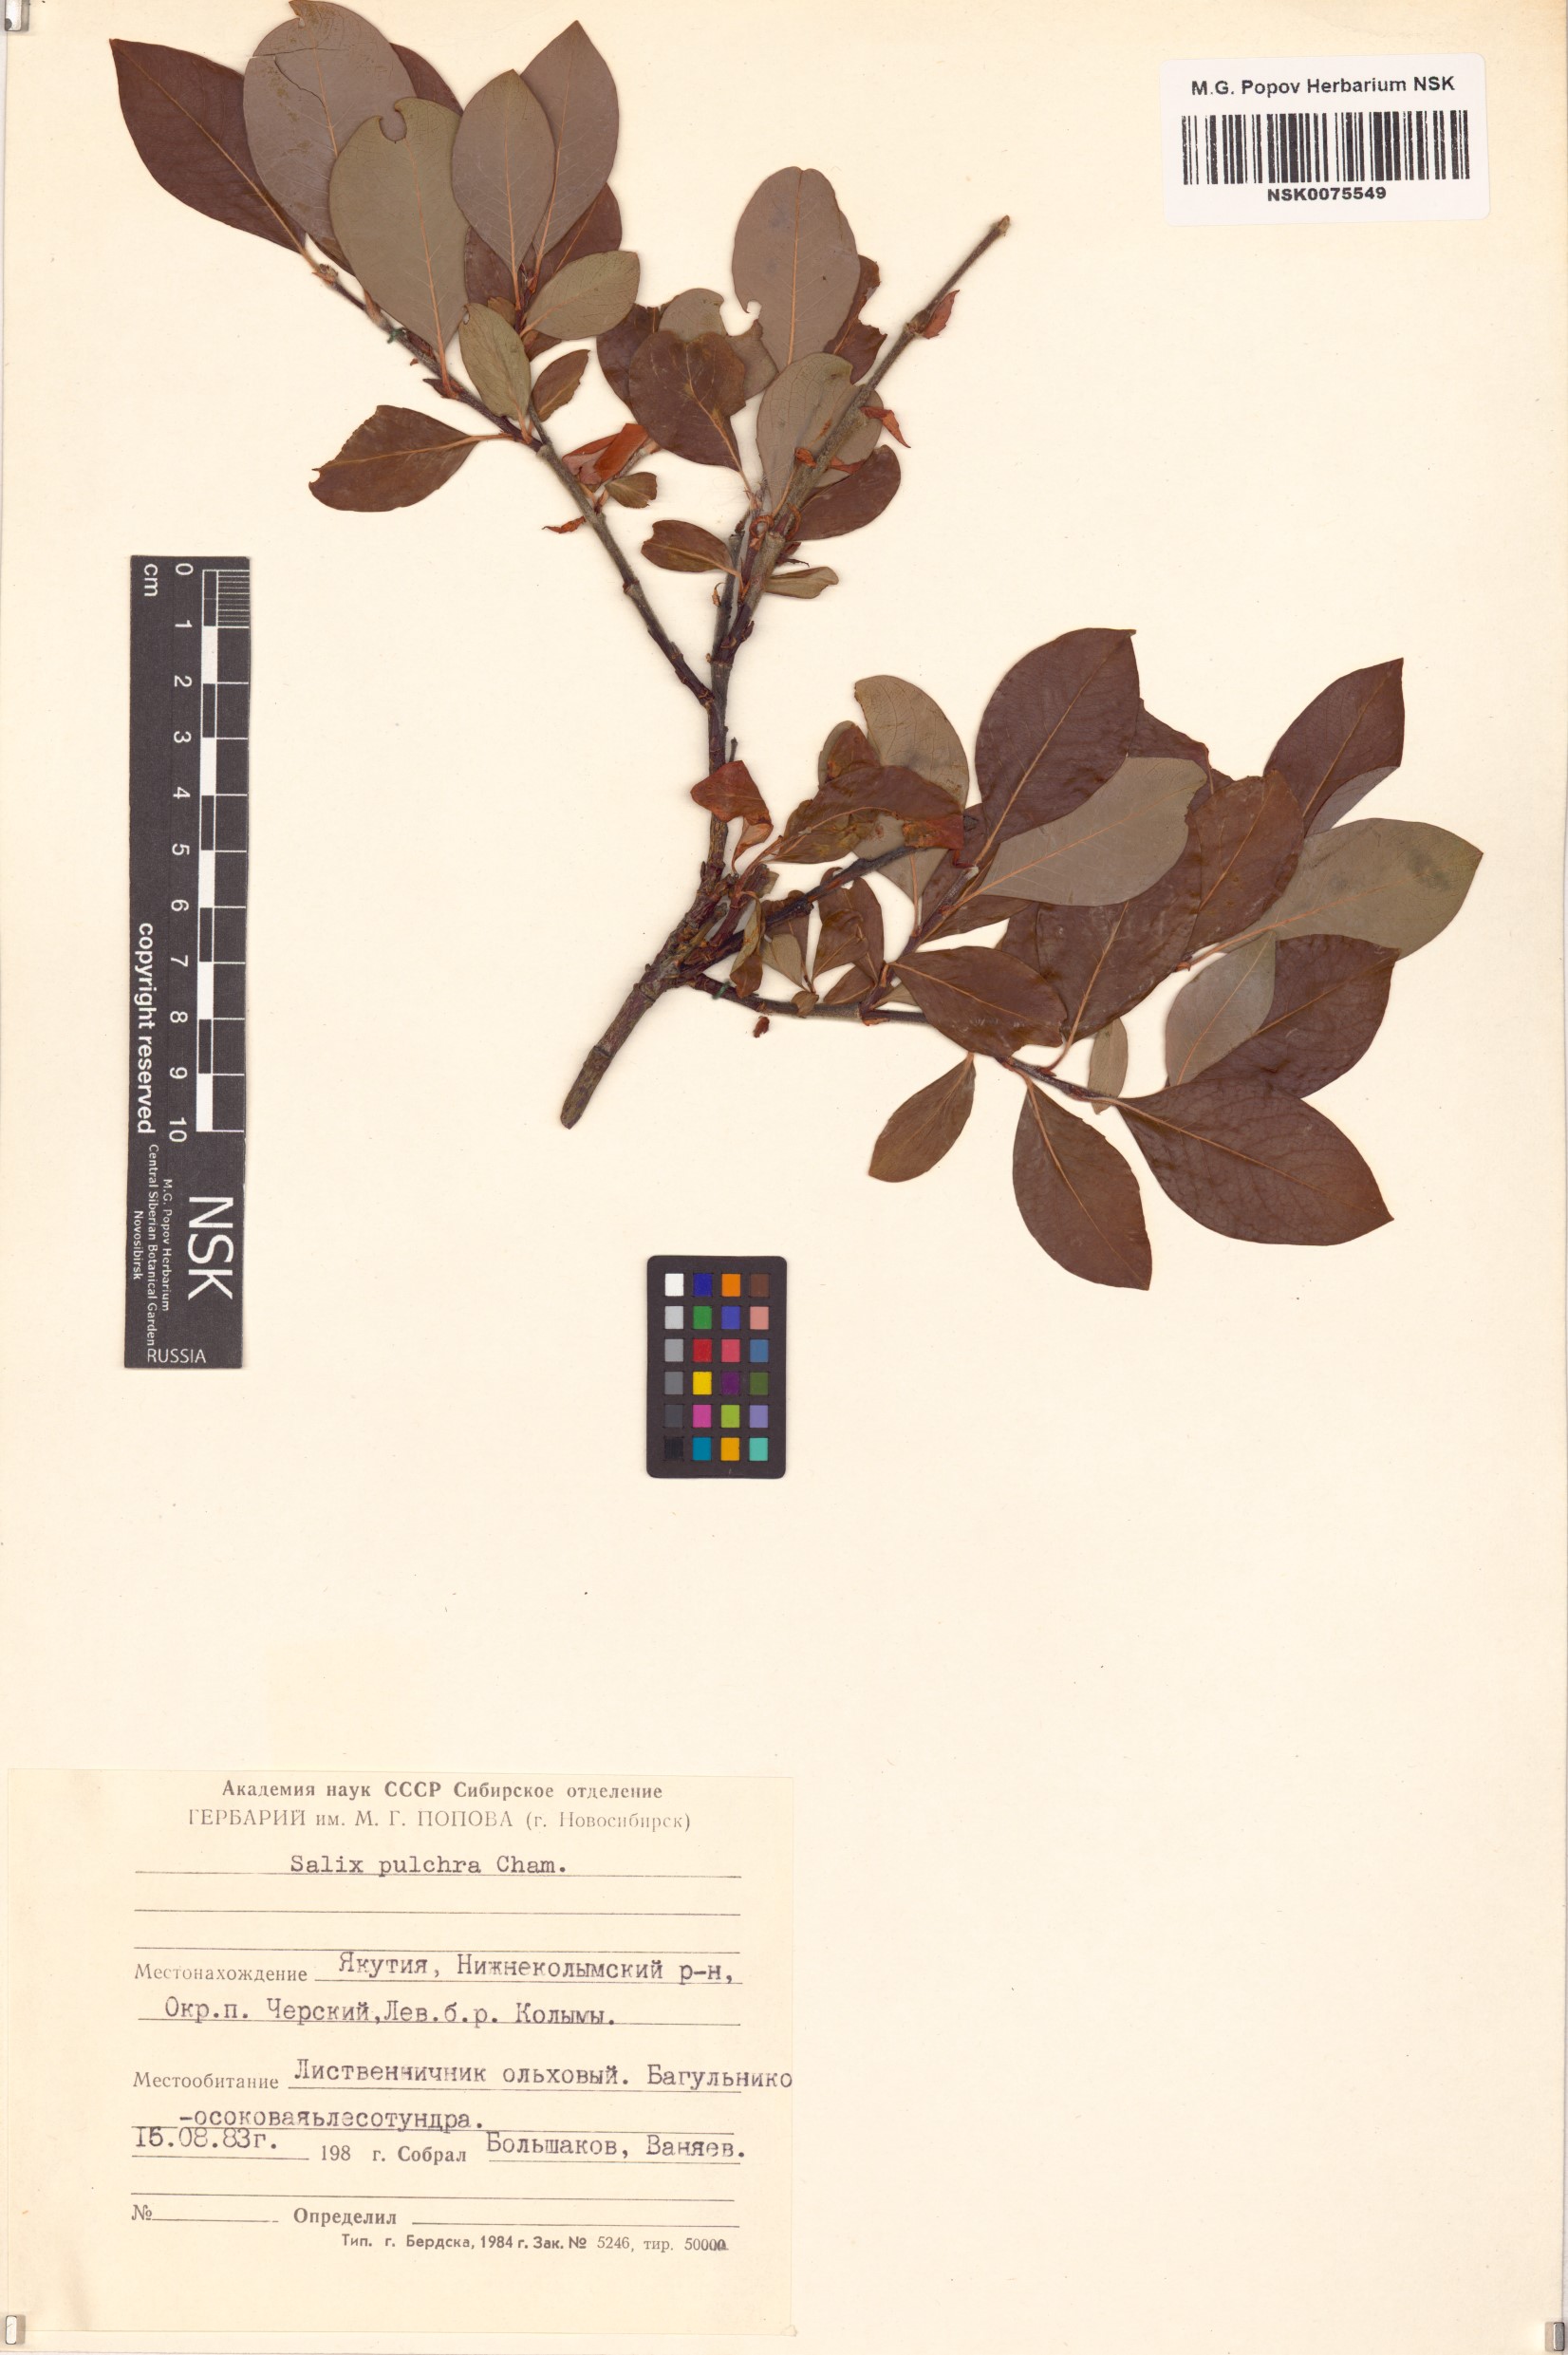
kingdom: Plantae
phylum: Tracheophyta
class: Magnoliopsida
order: Malpighiales
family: Salicaceae
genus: Salix
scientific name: Salix pulchra
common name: Diamond-leaved willow
